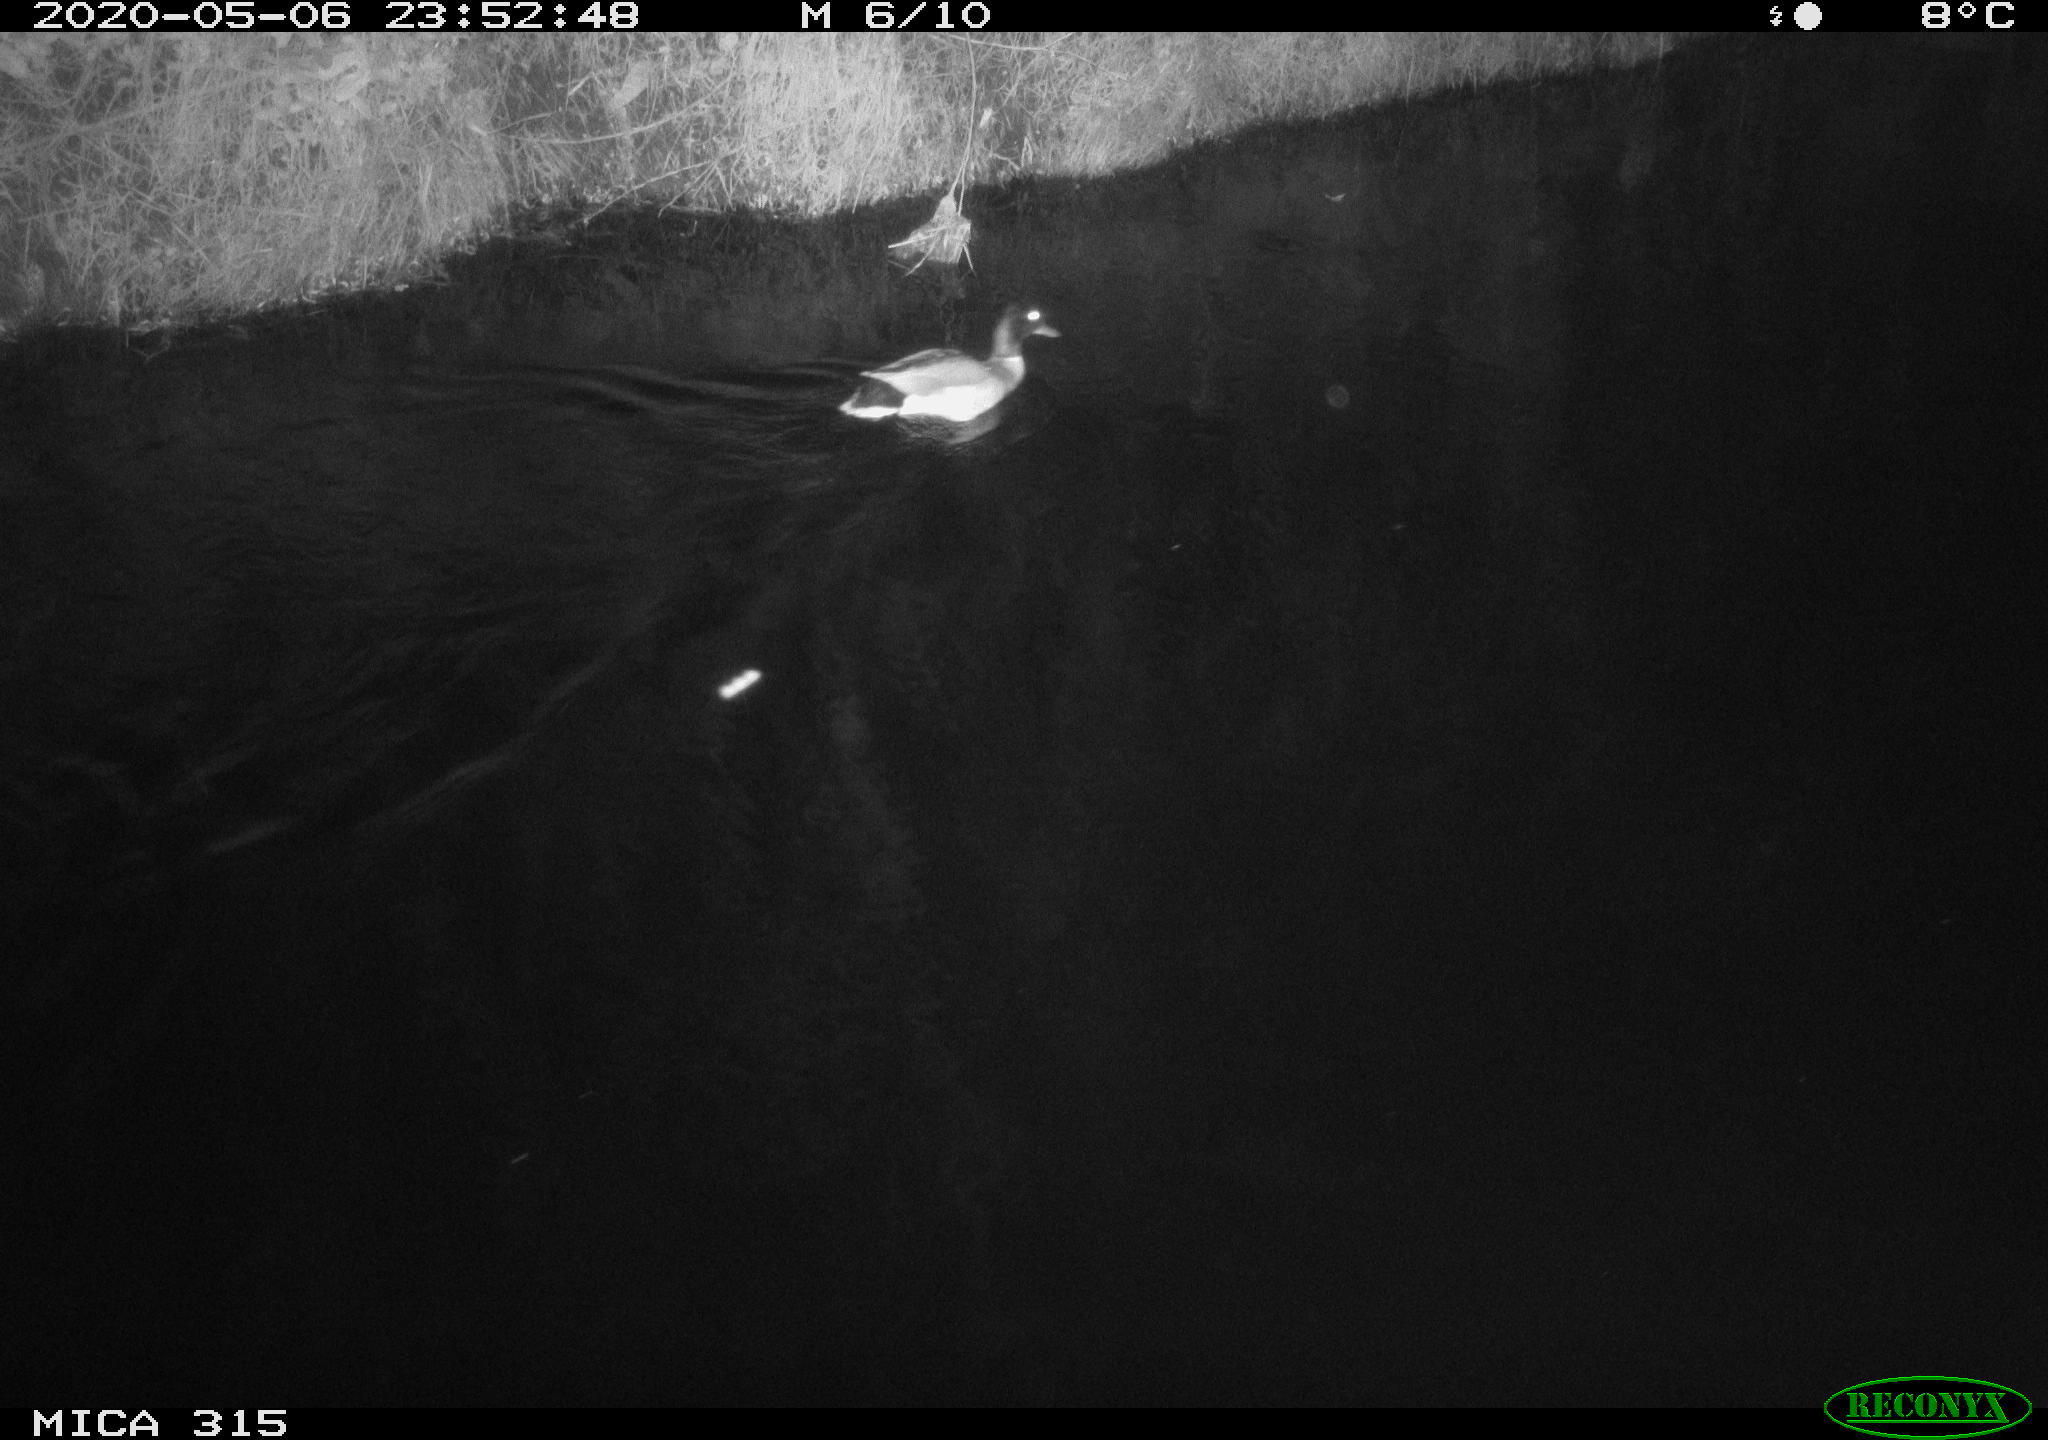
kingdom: Animalia
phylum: Chordata
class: Aves
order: Anseriformes
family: Anatidae
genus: Anas
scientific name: Anas platyrhynchos
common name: Mallard
